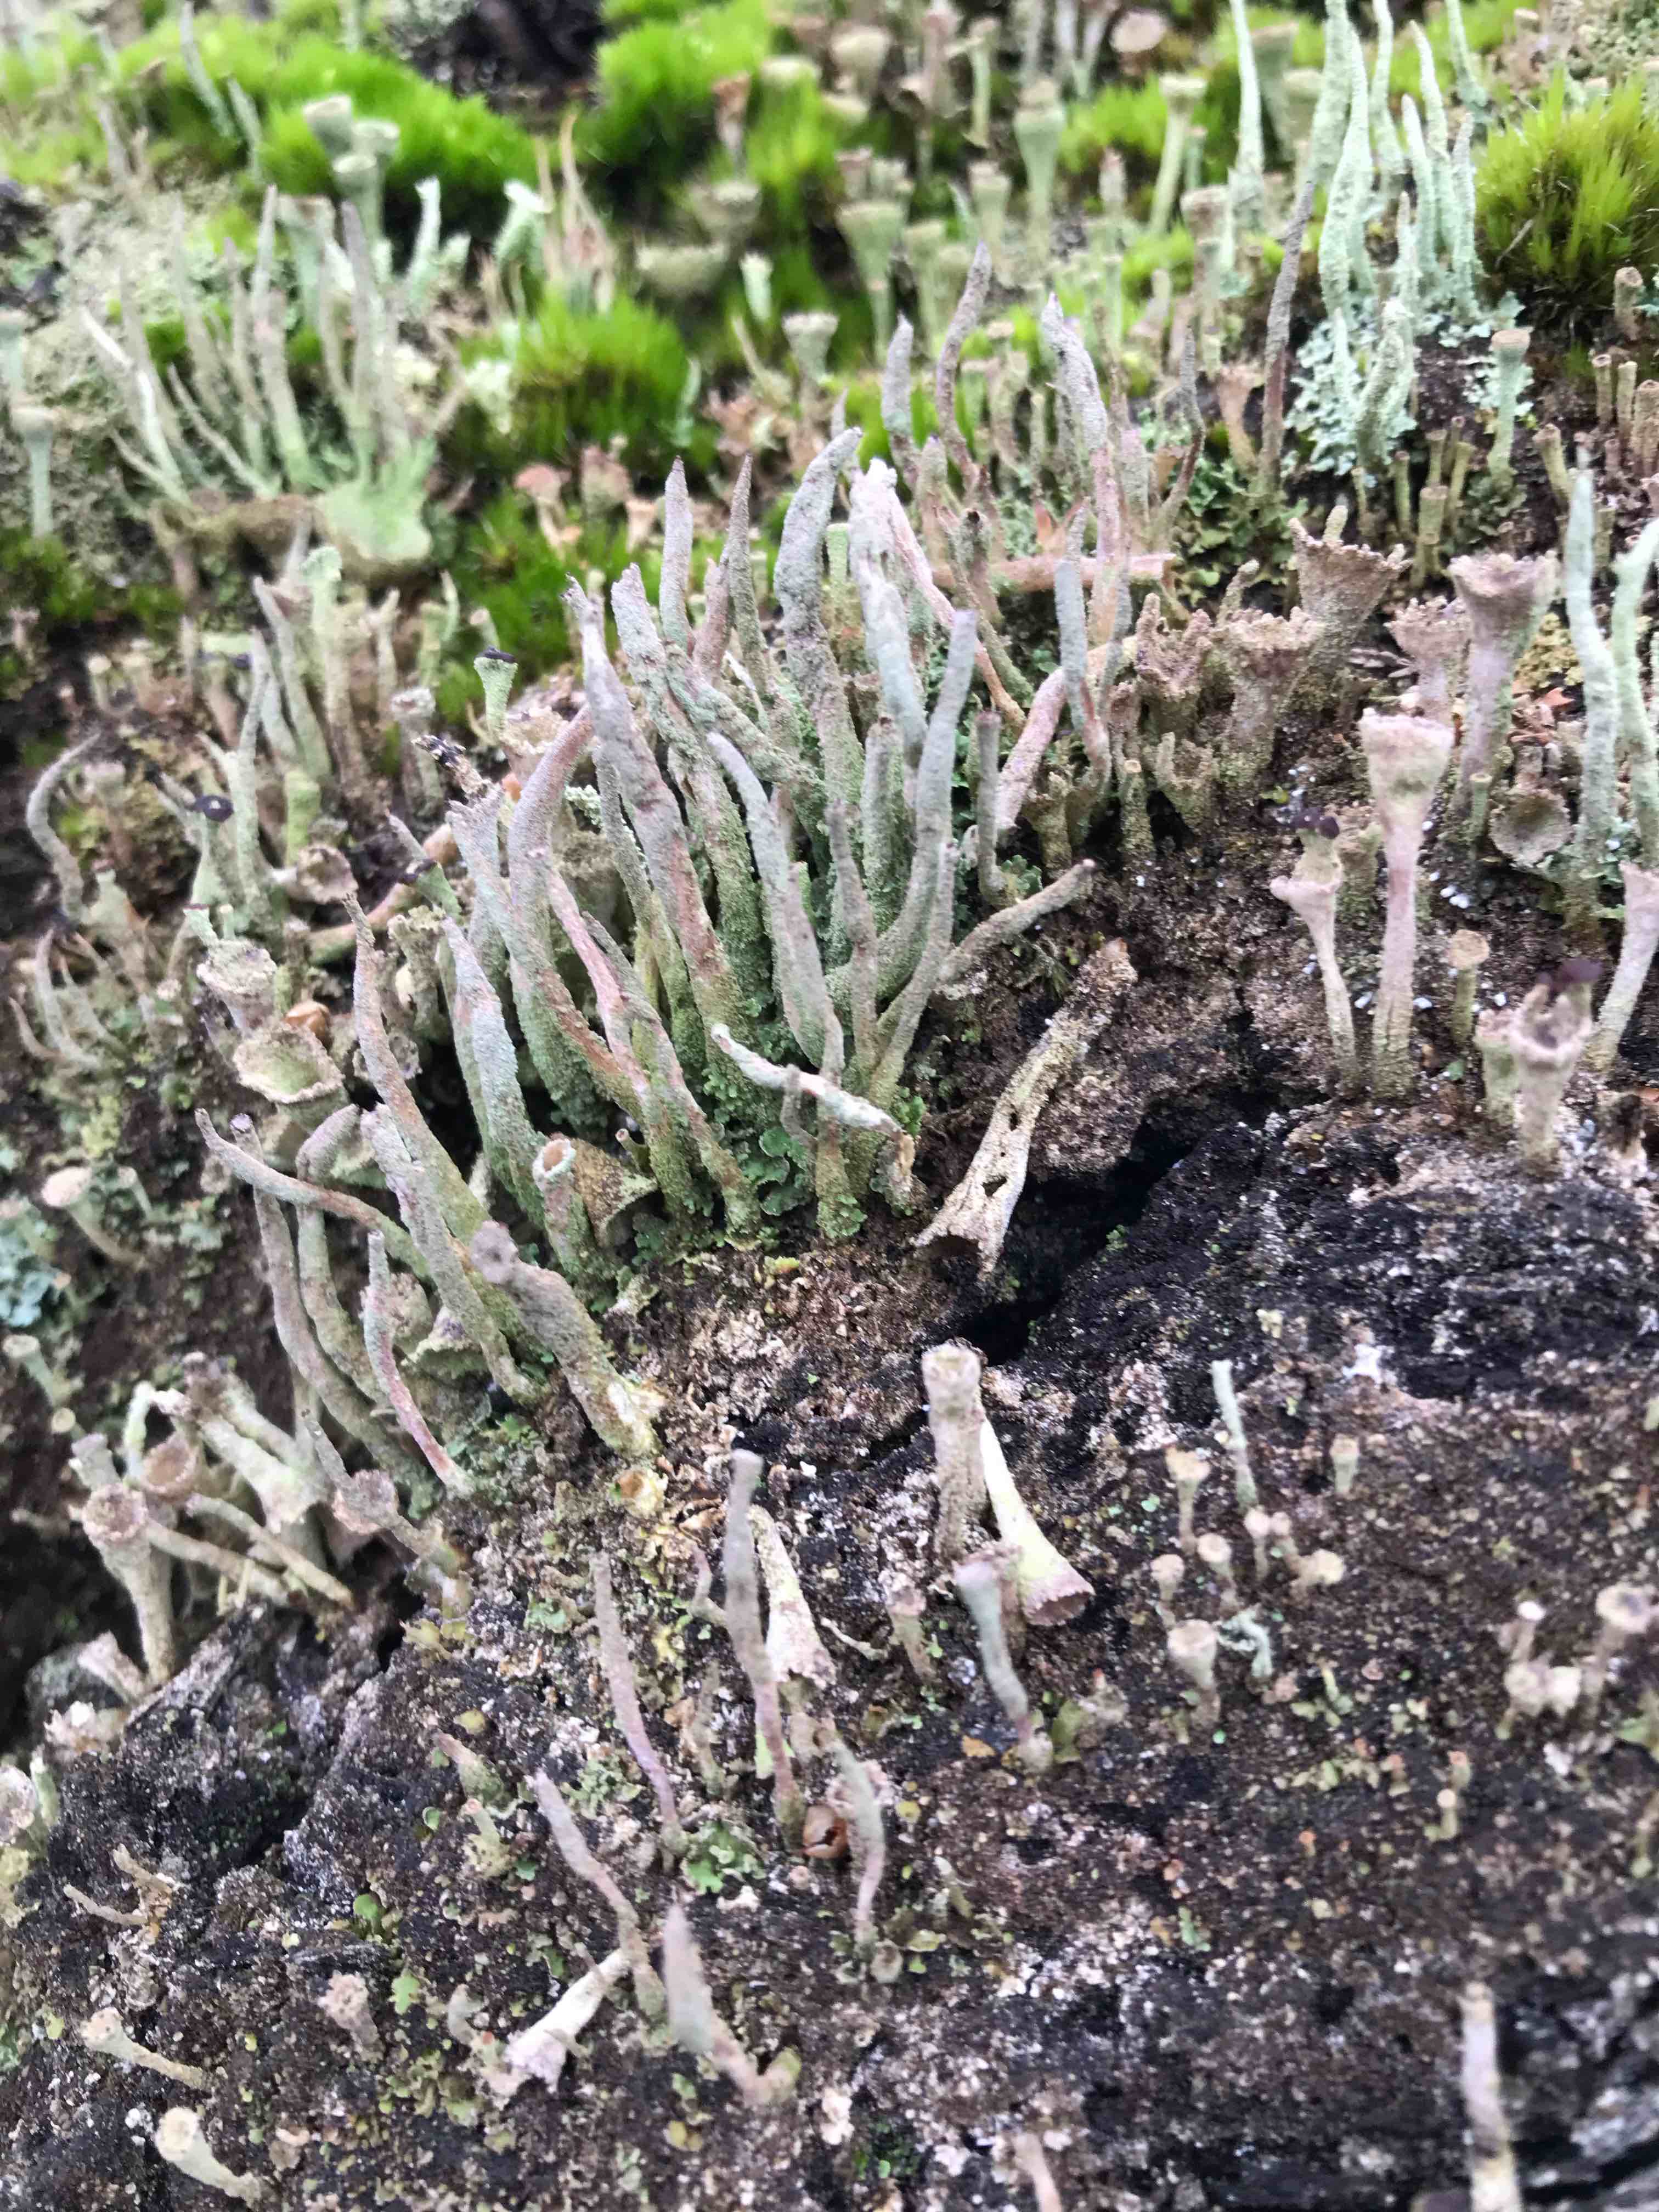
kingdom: Fungi
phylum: Ascomycota
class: Lecanoromycetes
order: Lecanorales
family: Cladoniaceae
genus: Cladonia
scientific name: Cladonia
